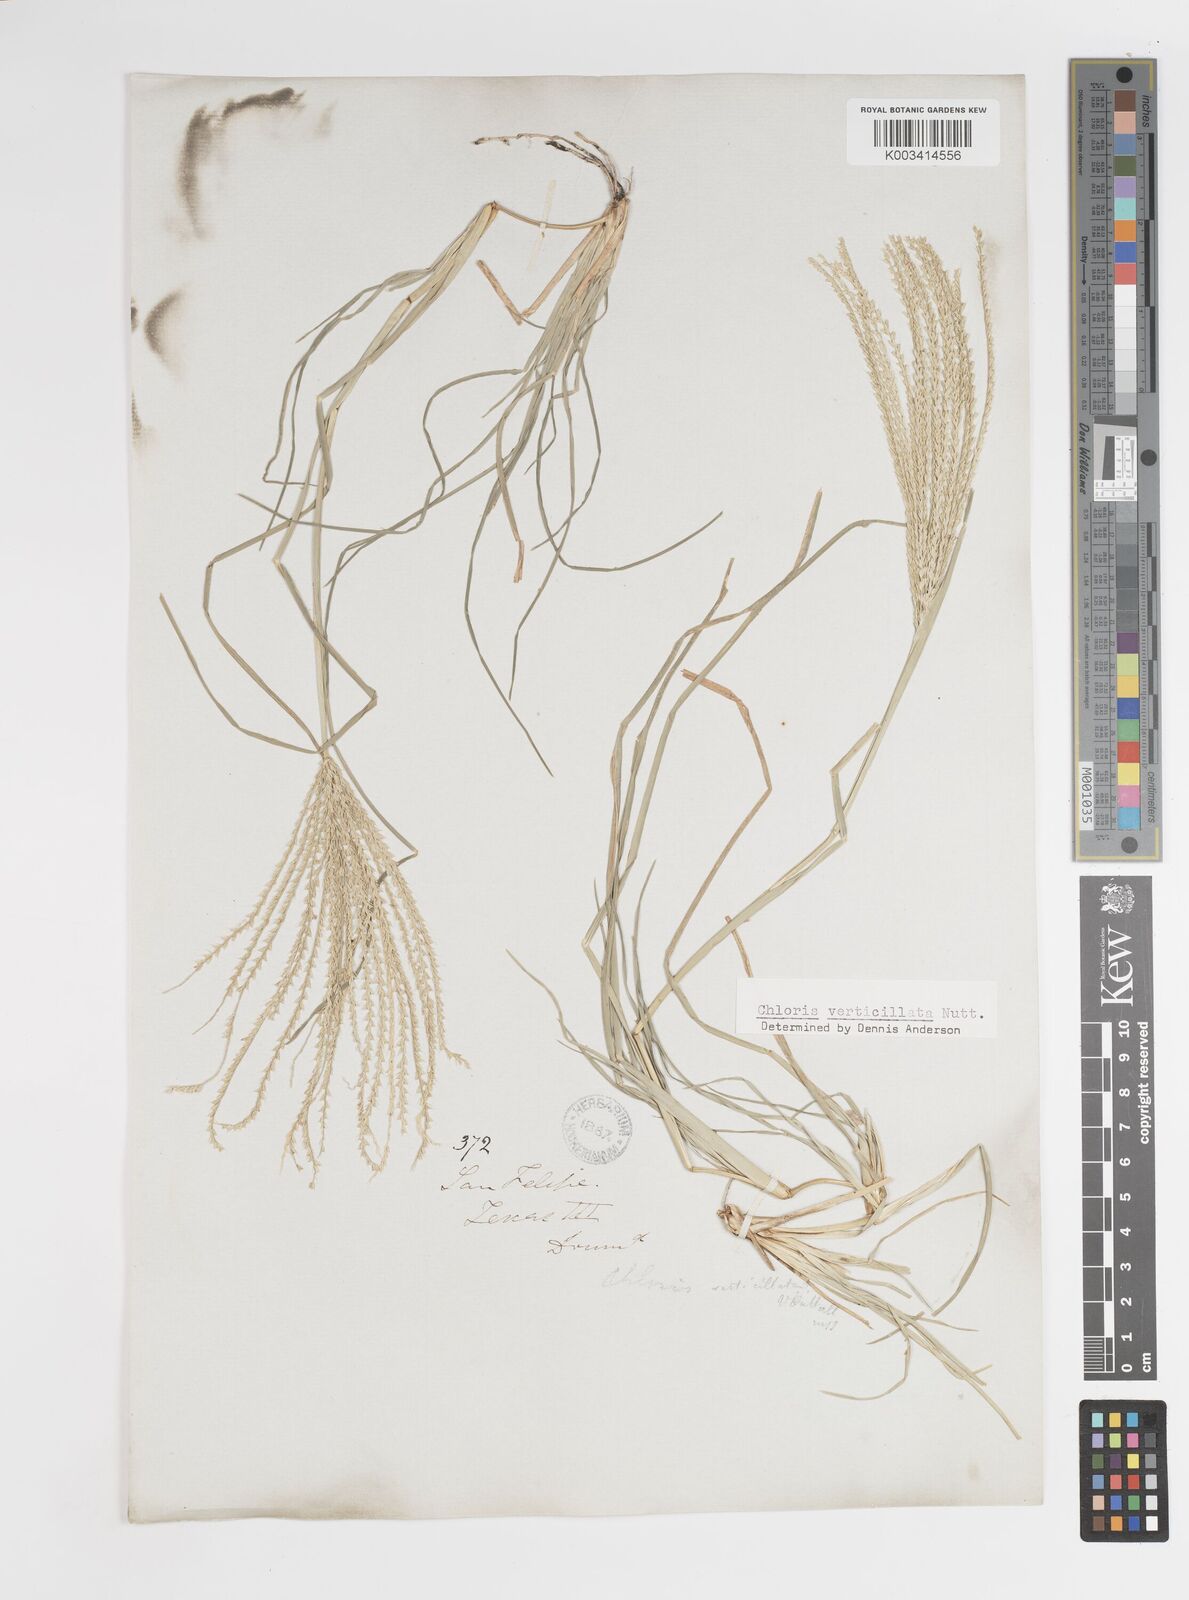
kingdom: Plantae
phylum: Tracheophyta
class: Liliopsida
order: Poales
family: Poaceae
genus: Chloris
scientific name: Chloris verticillata
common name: Tumble windmill grass
